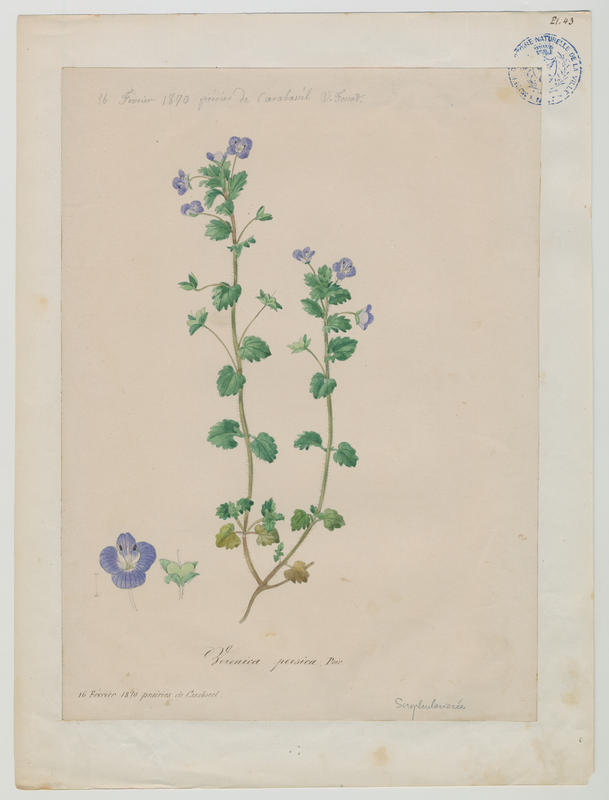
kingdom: Plantae
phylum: Tracheophyta
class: Magnoliopsida
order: Lamiales
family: Plantaginaceae
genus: Veronica
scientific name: Veronica persica
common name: Common field-speedwell
